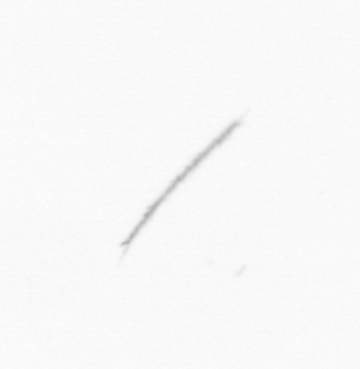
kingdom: Chromista
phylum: Ochrophyta
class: Bacillariophyceae
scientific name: Bacillariophyceae
